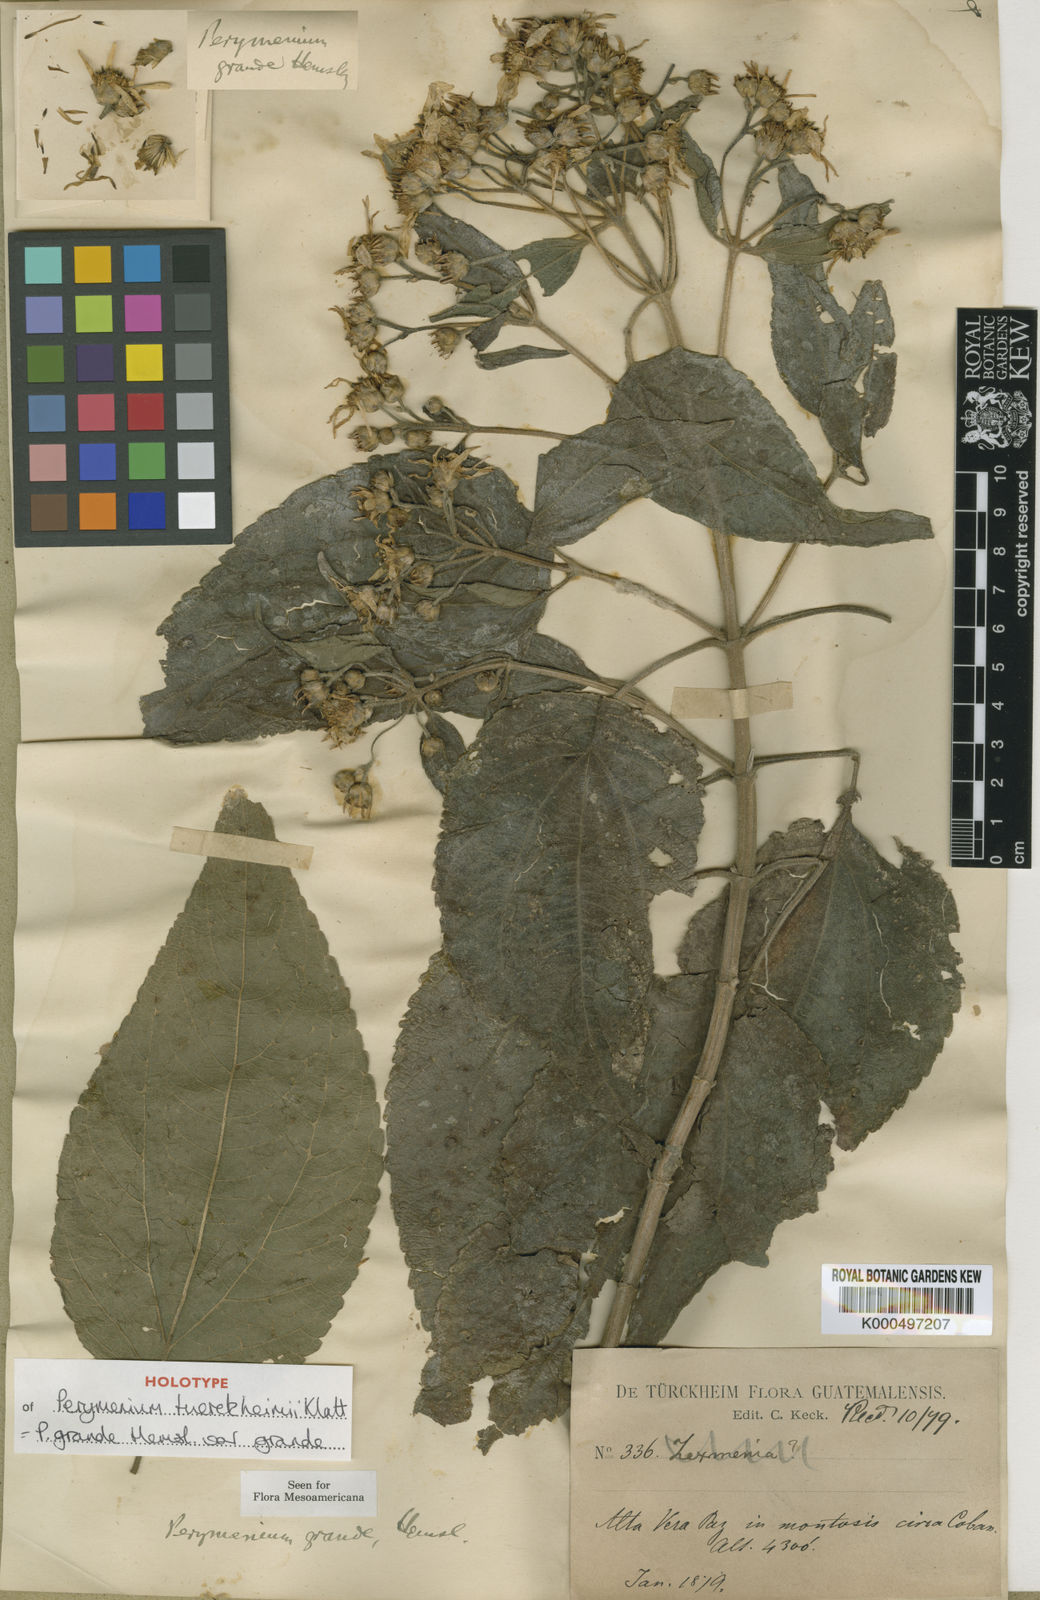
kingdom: Plantae
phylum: Tracheophyta
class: Magnoliopsida
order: Asterales
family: Asteraceae
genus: Perymenium
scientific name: Perymenium grande
